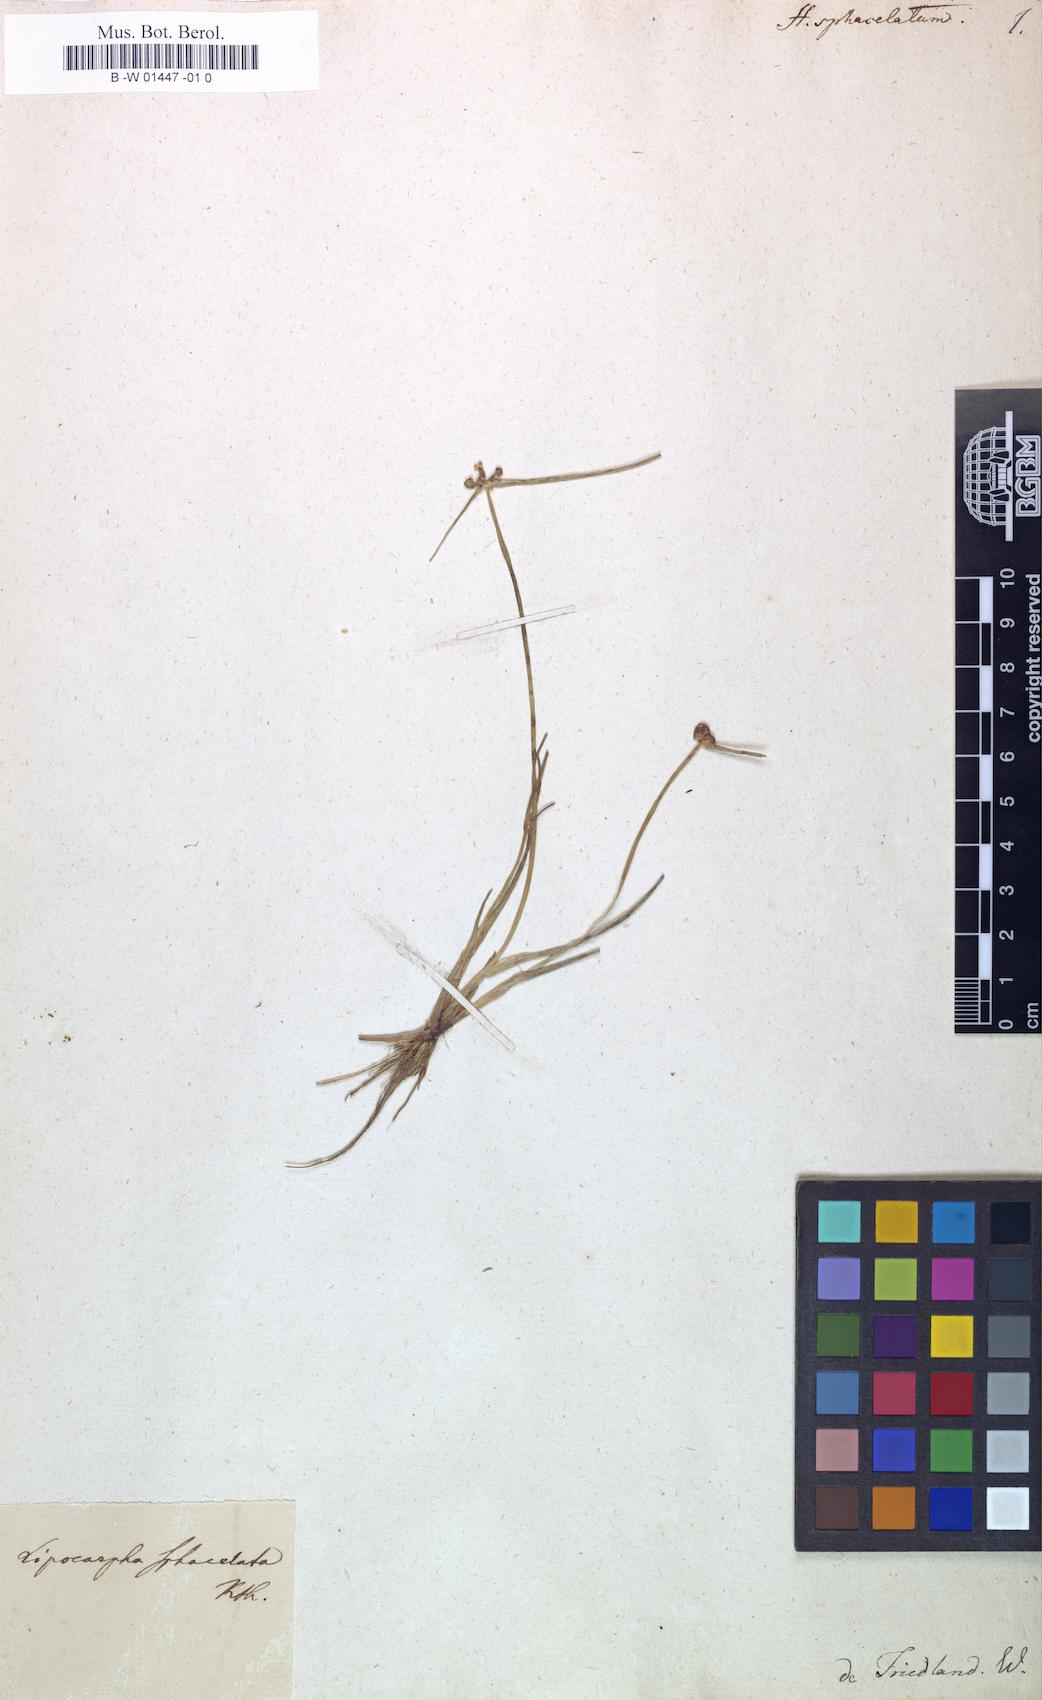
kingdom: Plantae
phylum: Tracheophyta
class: Liliopsida
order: Poales
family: Cyperaceae
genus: Cyperus
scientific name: Cyperus ceylanicus
